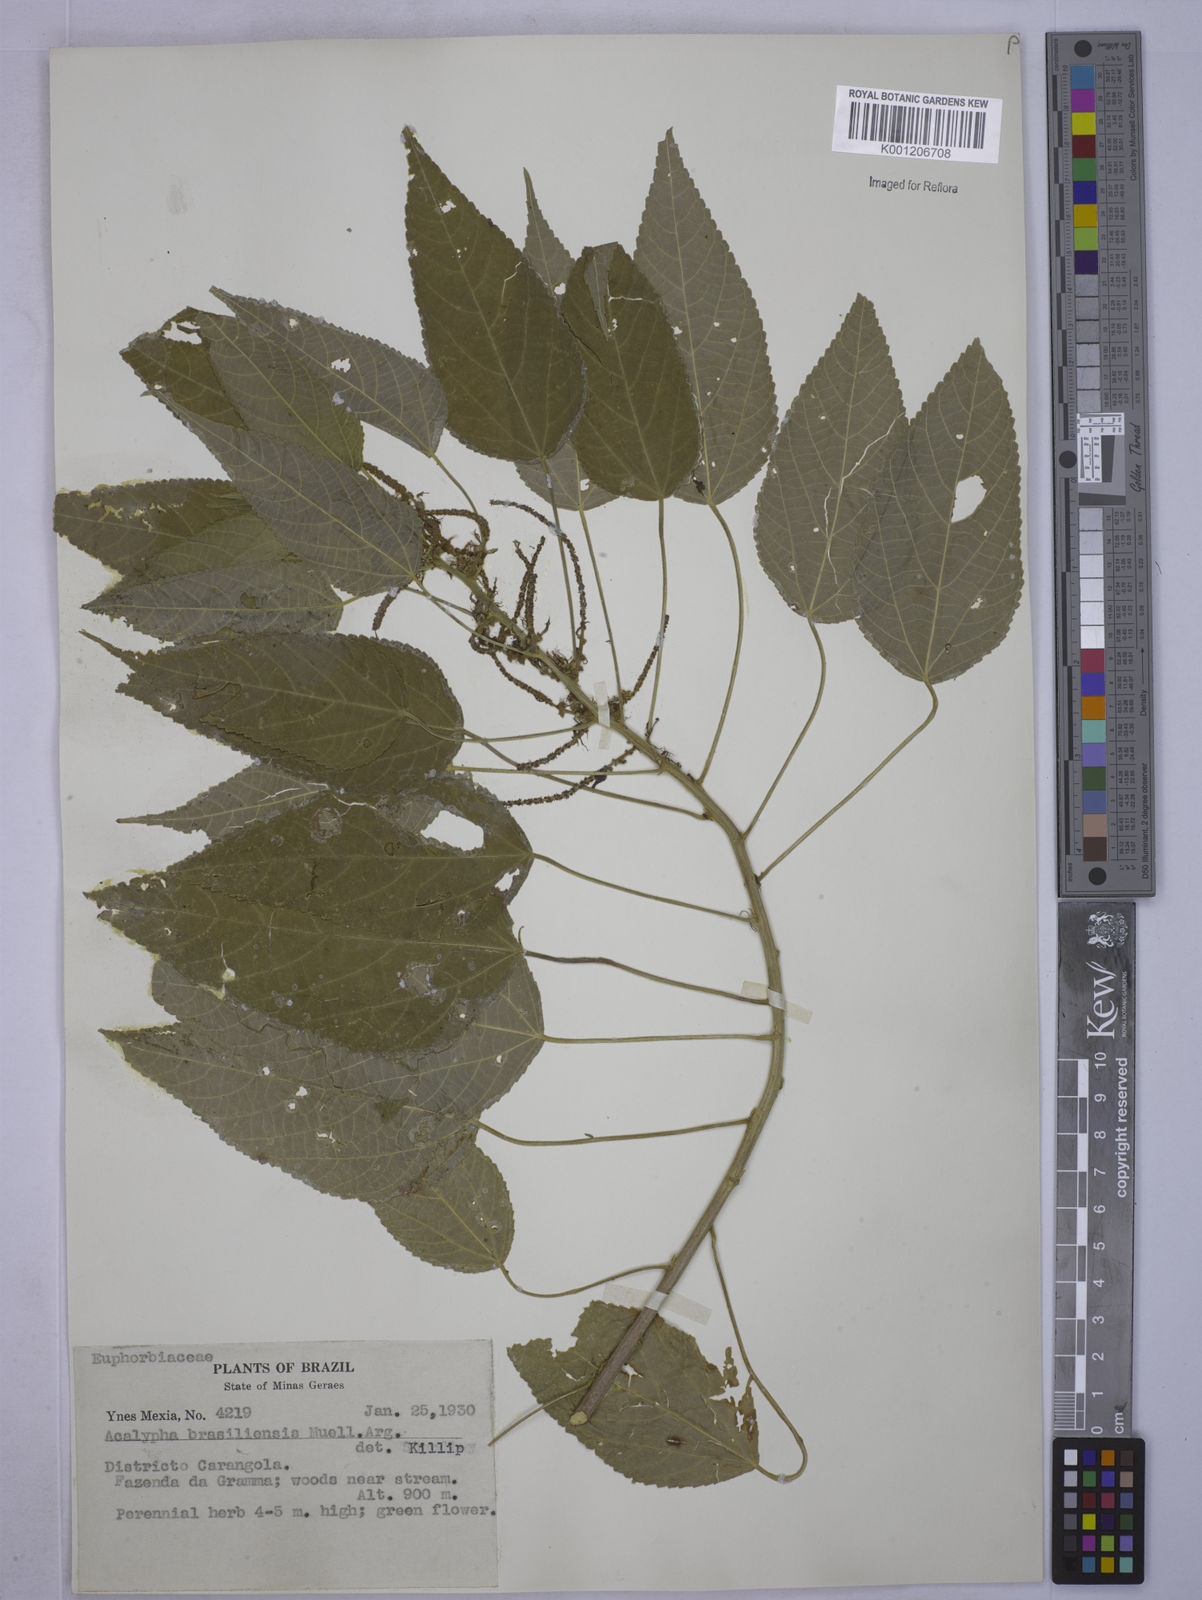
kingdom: Plantae
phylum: Tracheophyta
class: Magnoliopsida
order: Malpighiales
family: Euphorbiaceae
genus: Acalypha
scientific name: Acalypha
